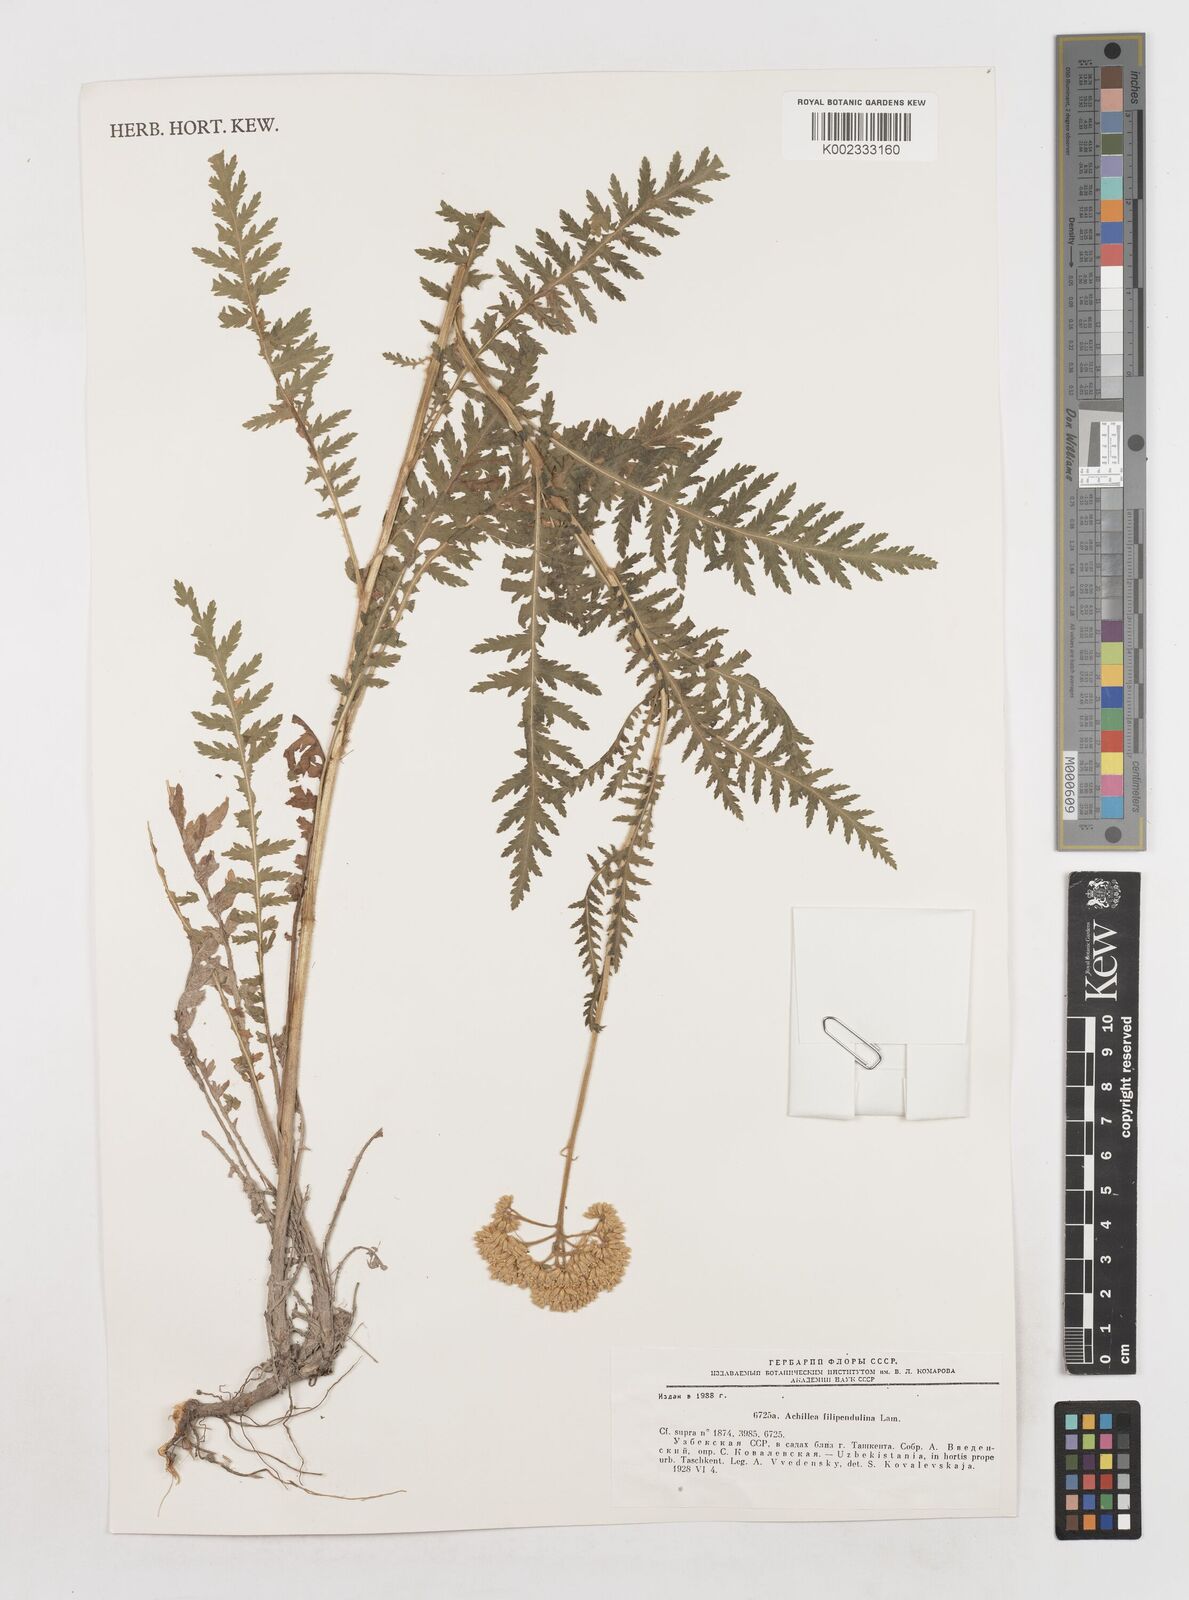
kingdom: Plantae
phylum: Tracheophyta
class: Magnoliopsida
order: Asterales
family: Asteraceae
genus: Achillea
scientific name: Achillea filipendulina
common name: Fernleaf yarrow
